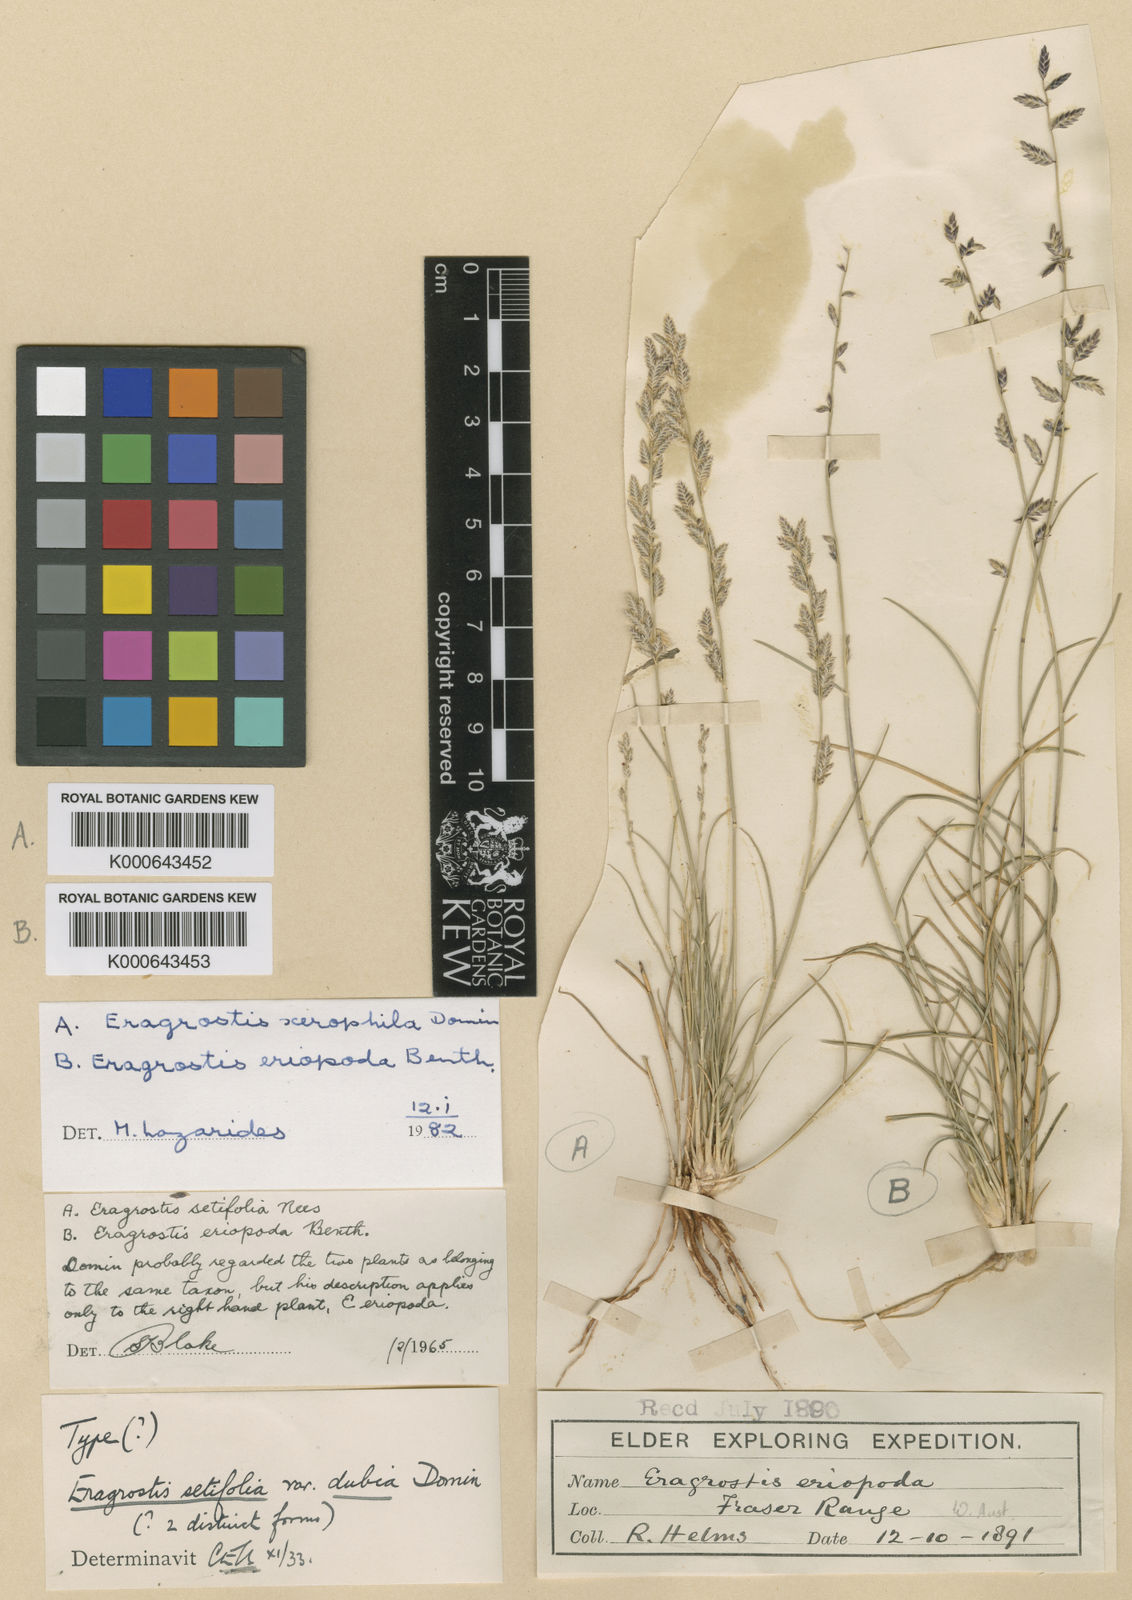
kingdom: Plantae
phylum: Tracheophyta
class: Liliopsida
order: Poales
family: Poaceae
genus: Eragrostis
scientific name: Eragrostis eriopoda
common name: Plain neverfail
